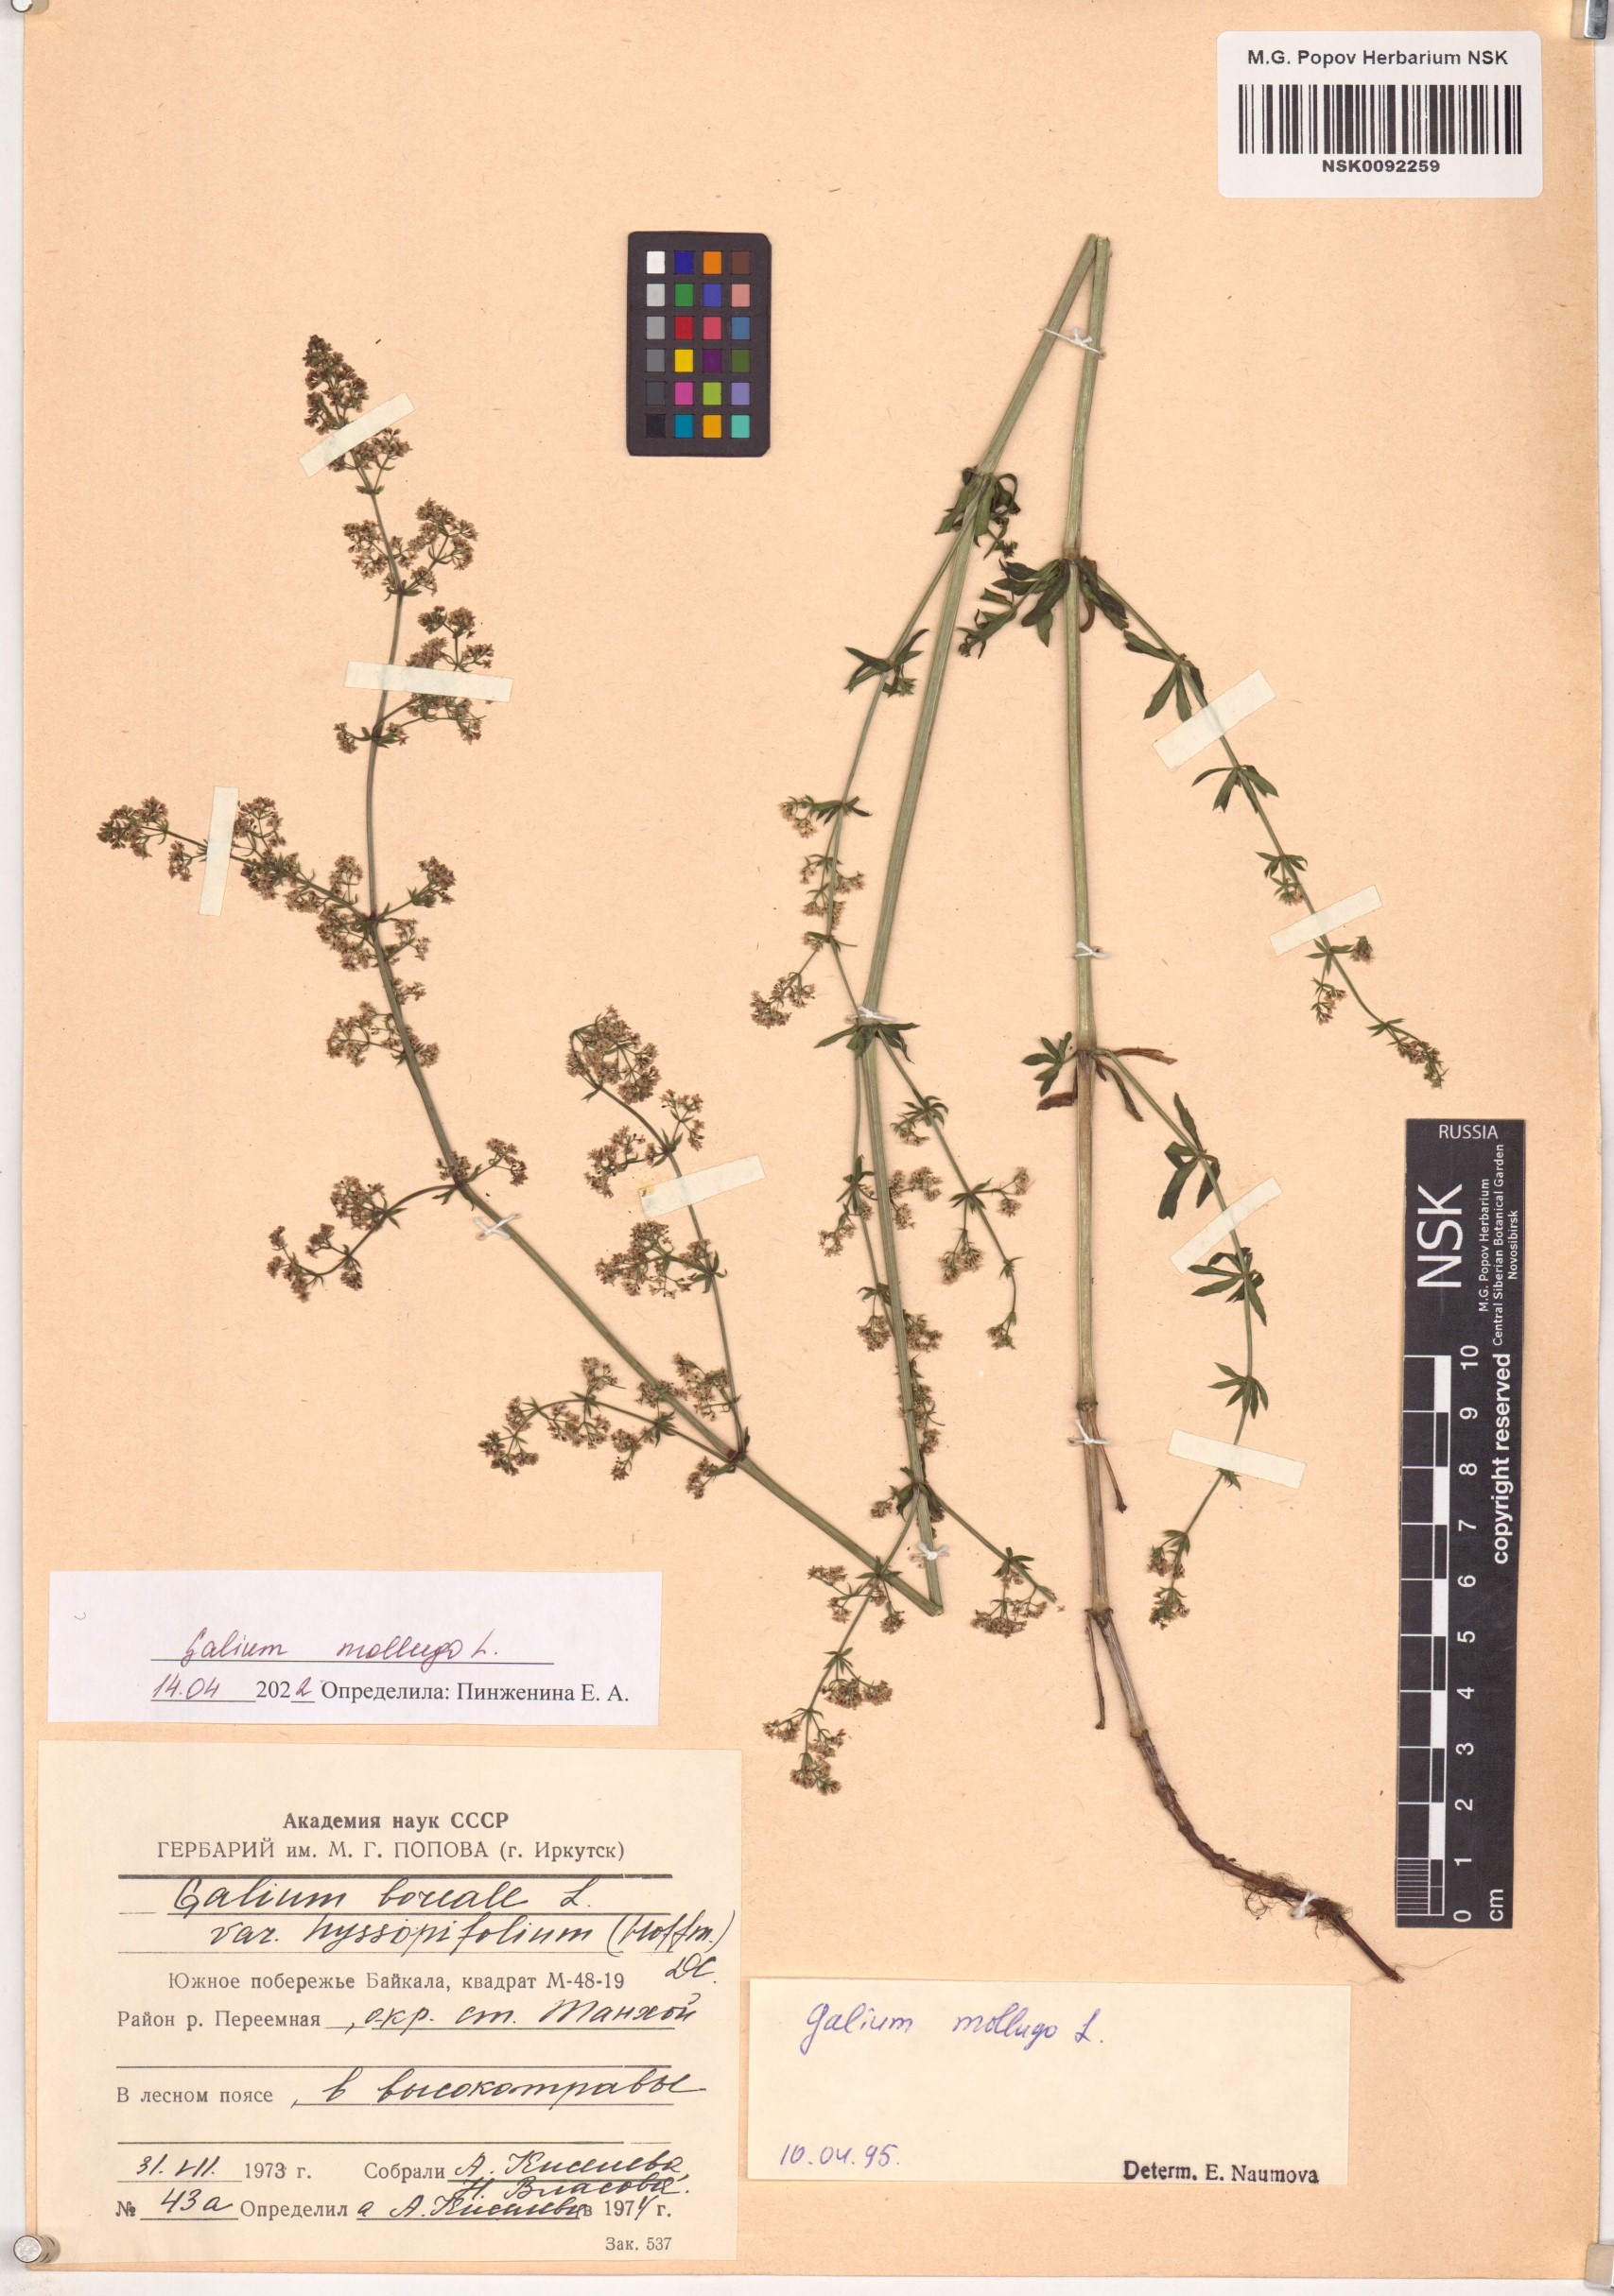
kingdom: Plantae
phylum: Tracheophyta
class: Magnoliopsida
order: Gentianales
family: Rubiaceae
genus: Galium
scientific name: Galium mollugo
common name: Hedge bedstraw
